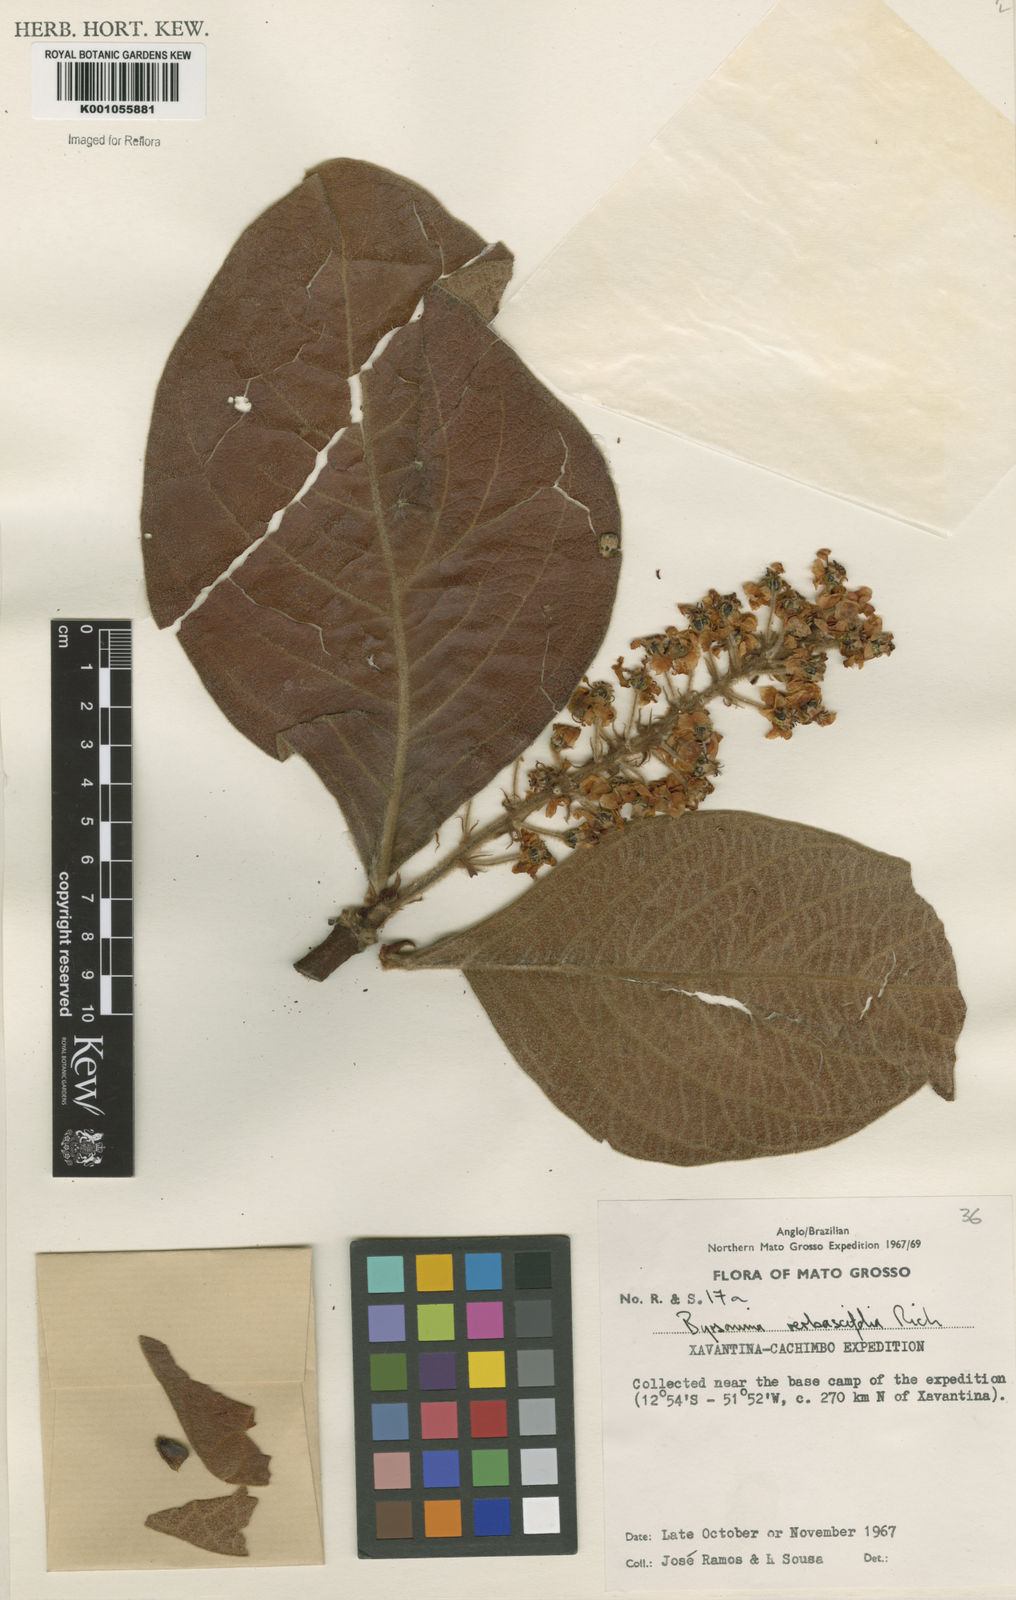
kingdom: Plantae
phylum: Tracheophyta
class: Magnoliopsida
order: Malpighiales
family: Malpighiaceae
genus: Byrsonima
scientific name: Byrsonima verbascifolia
